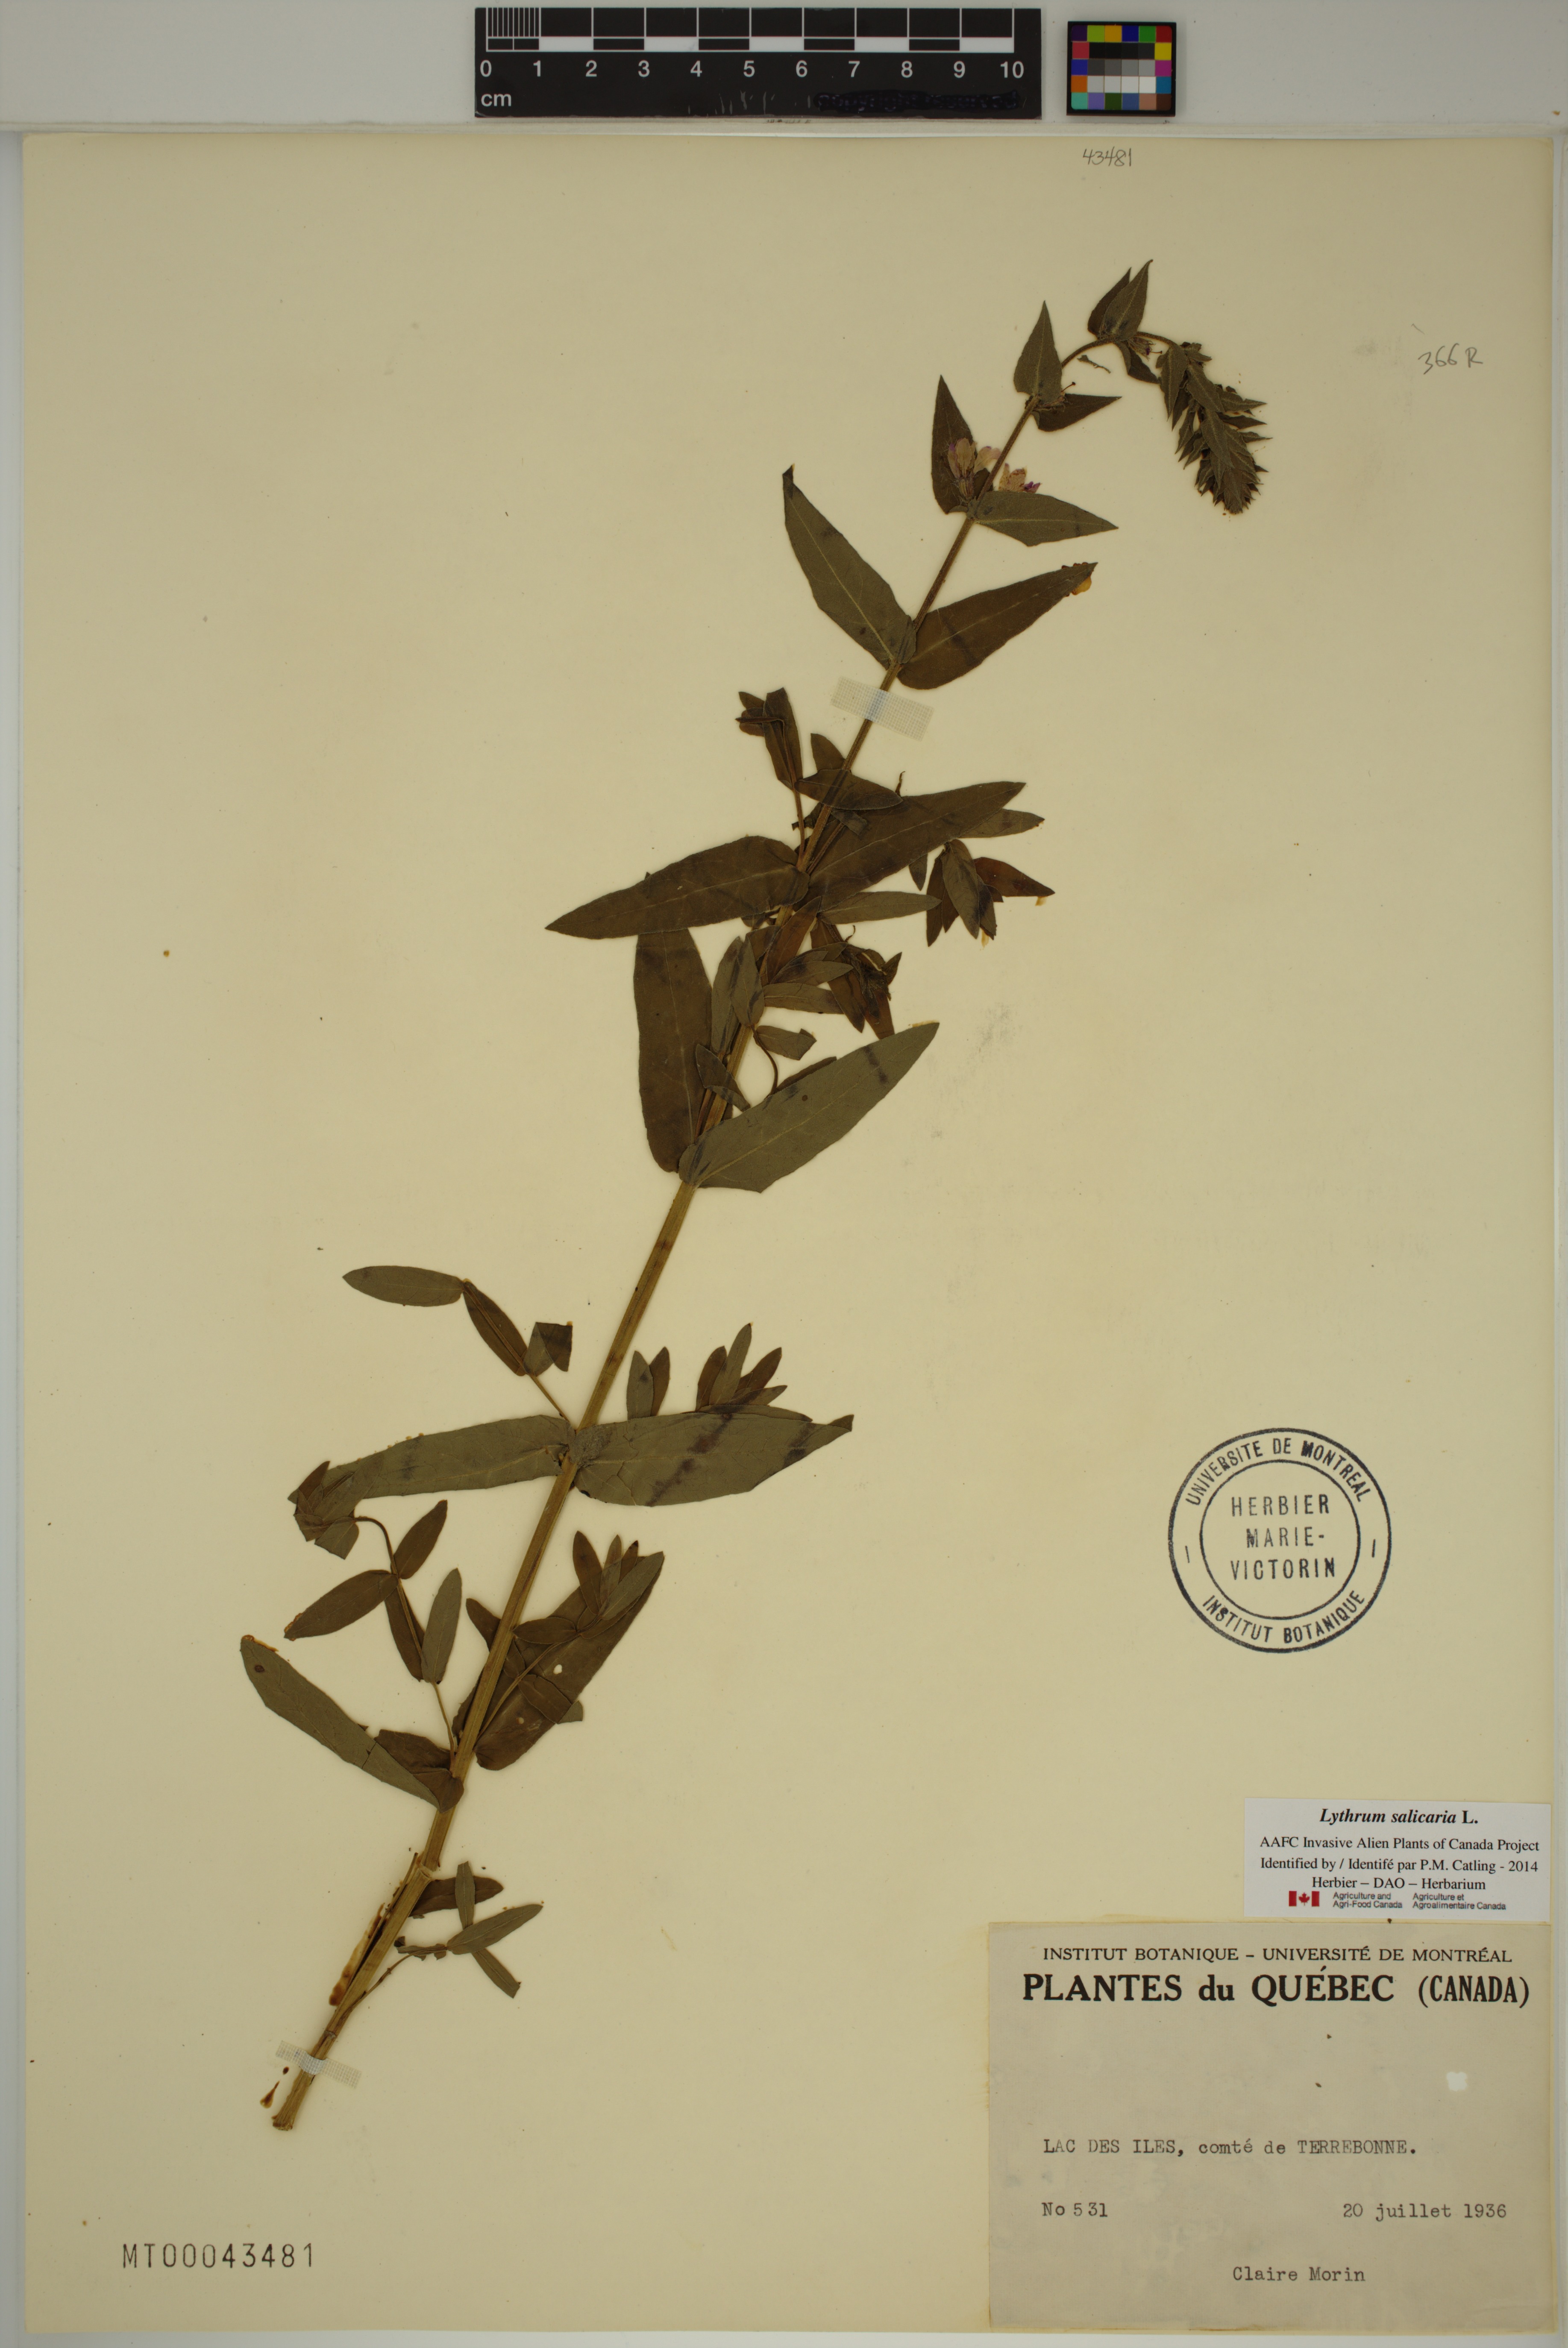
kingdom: Plantae
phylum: Tracheophyta
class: Magnoliopsida
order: Myrtales
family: Lythraceae
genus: Lythrum
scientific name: Lythrum salicaria
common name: Purple loosestrife
